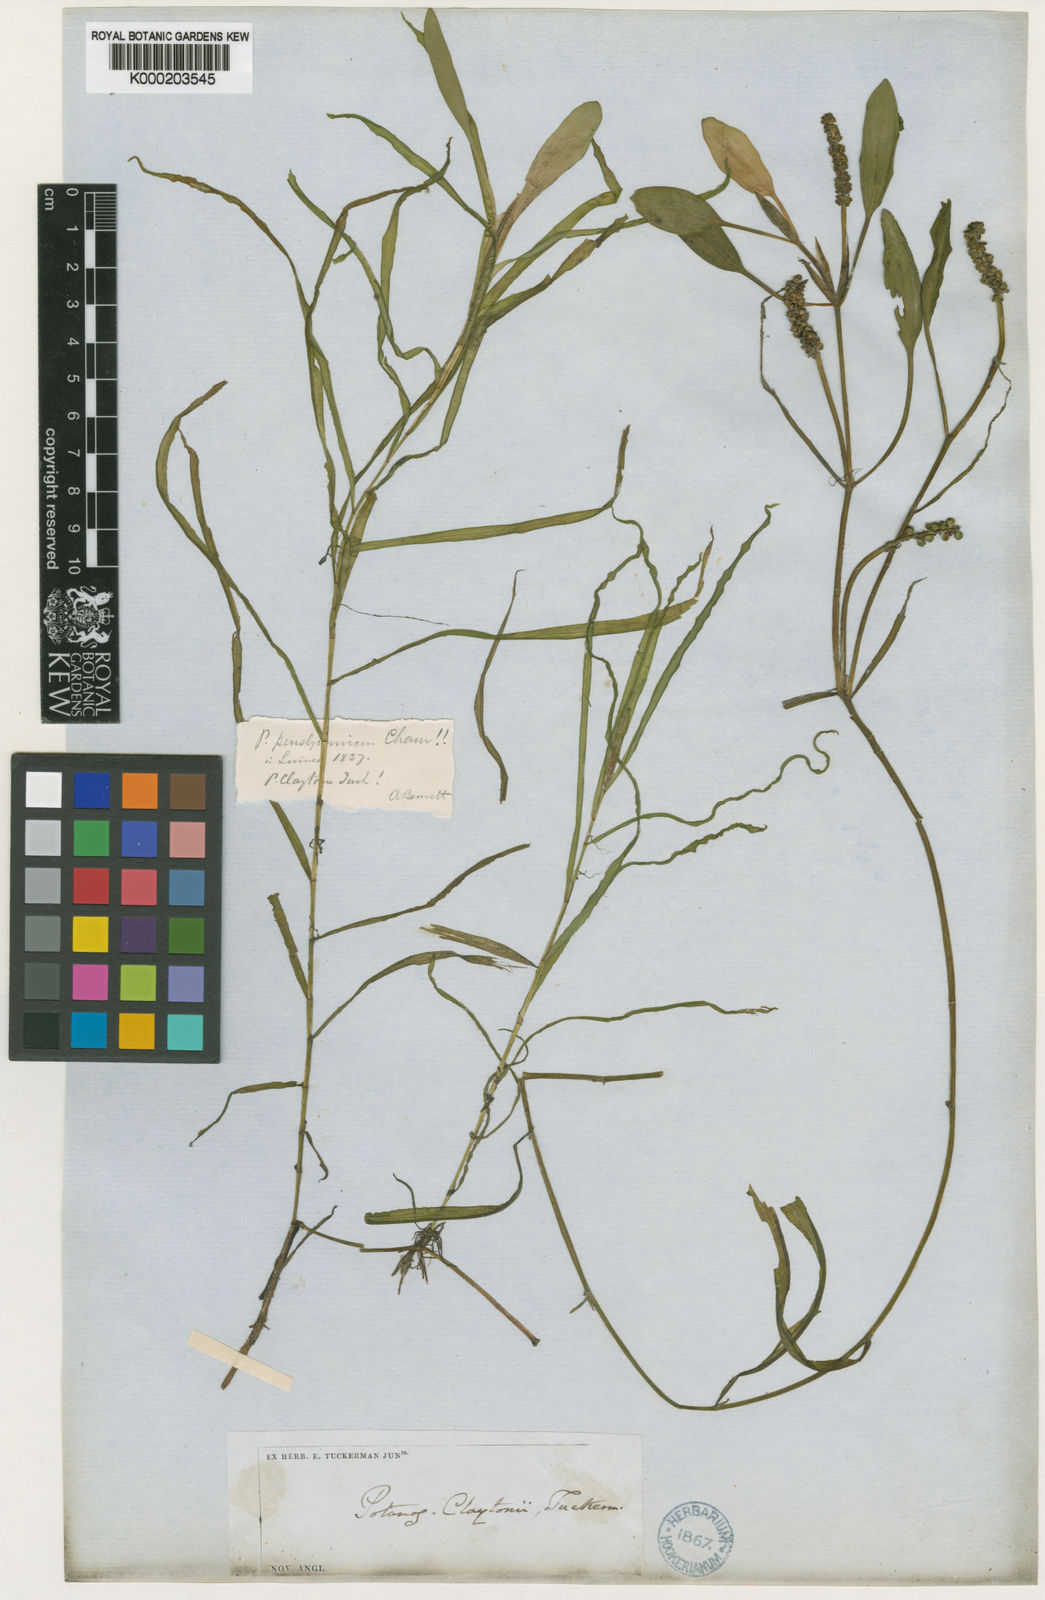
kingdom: Plantae
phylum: Tracheophyta
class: Liliopsida
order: Alismatales
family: Potamogetonaceae
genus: Potamogeton
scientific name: Potamogeton epihydrus
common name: American pondweed
